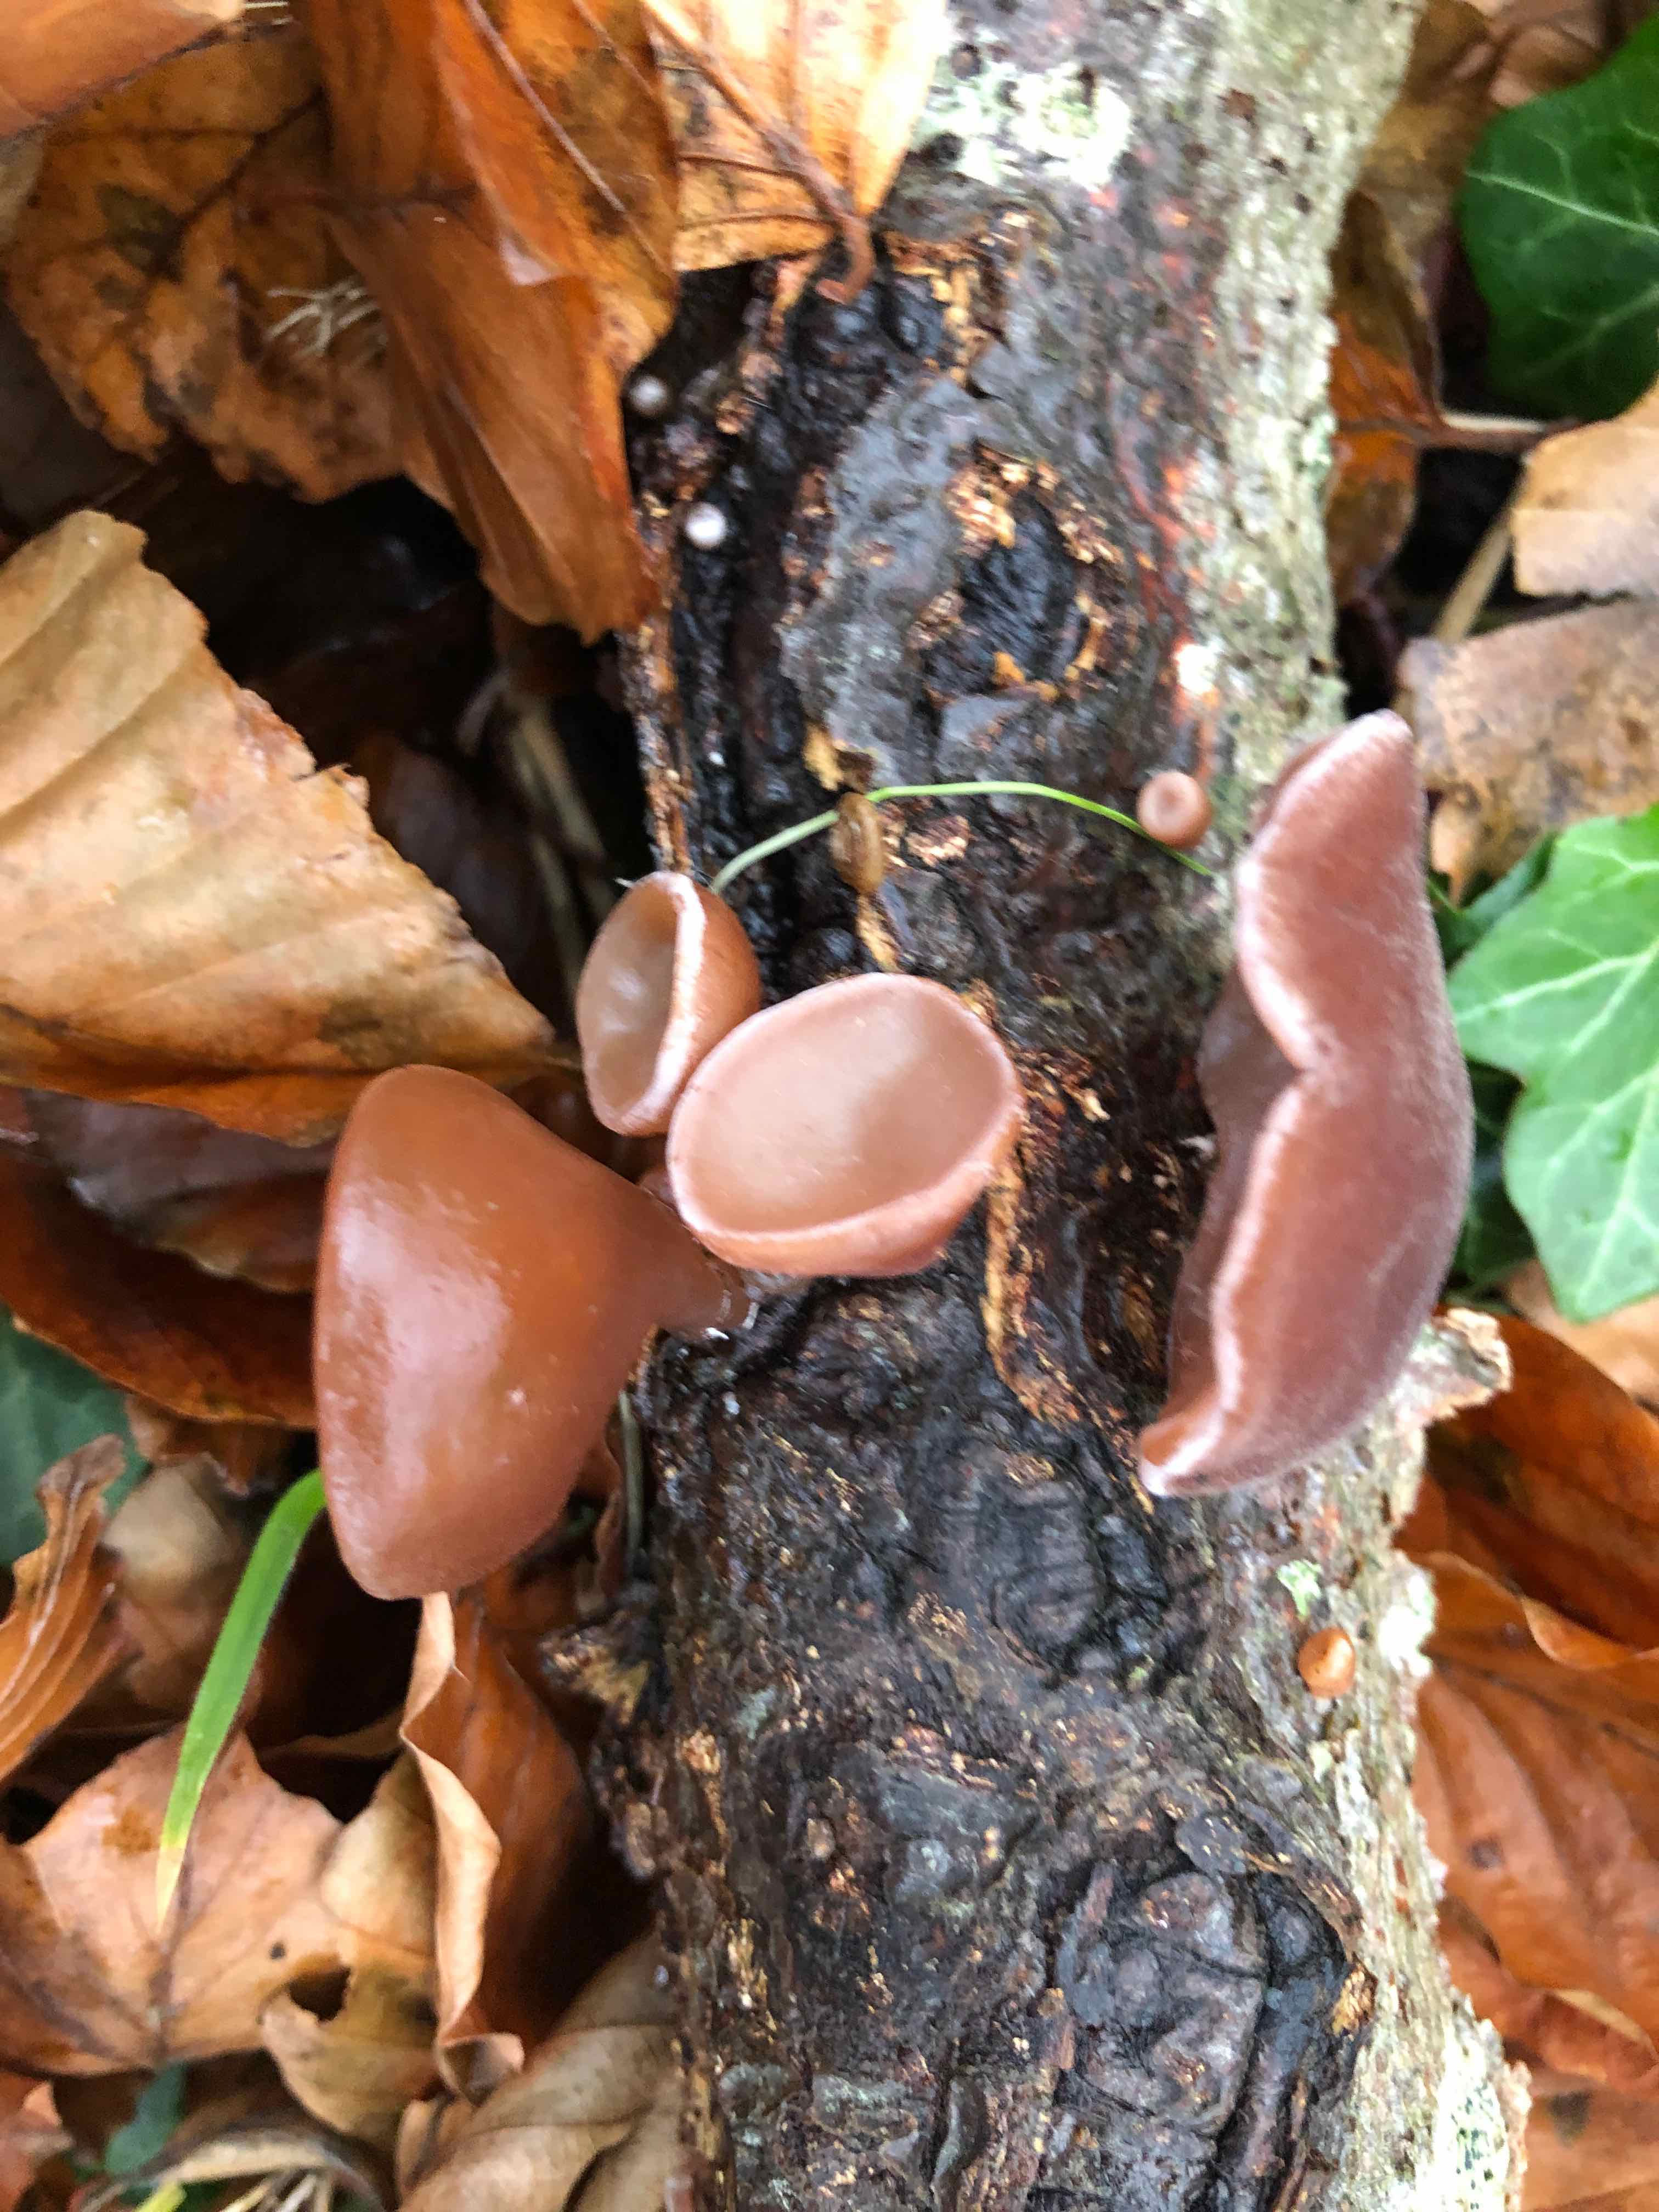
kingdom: Fungi
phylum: Basidiomycota
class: Agaricomycetes
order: Auriculariales
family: Auriculariaceae
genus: Auricularia
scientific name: Auricularia auricula-judae
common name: almindelig judasøre
